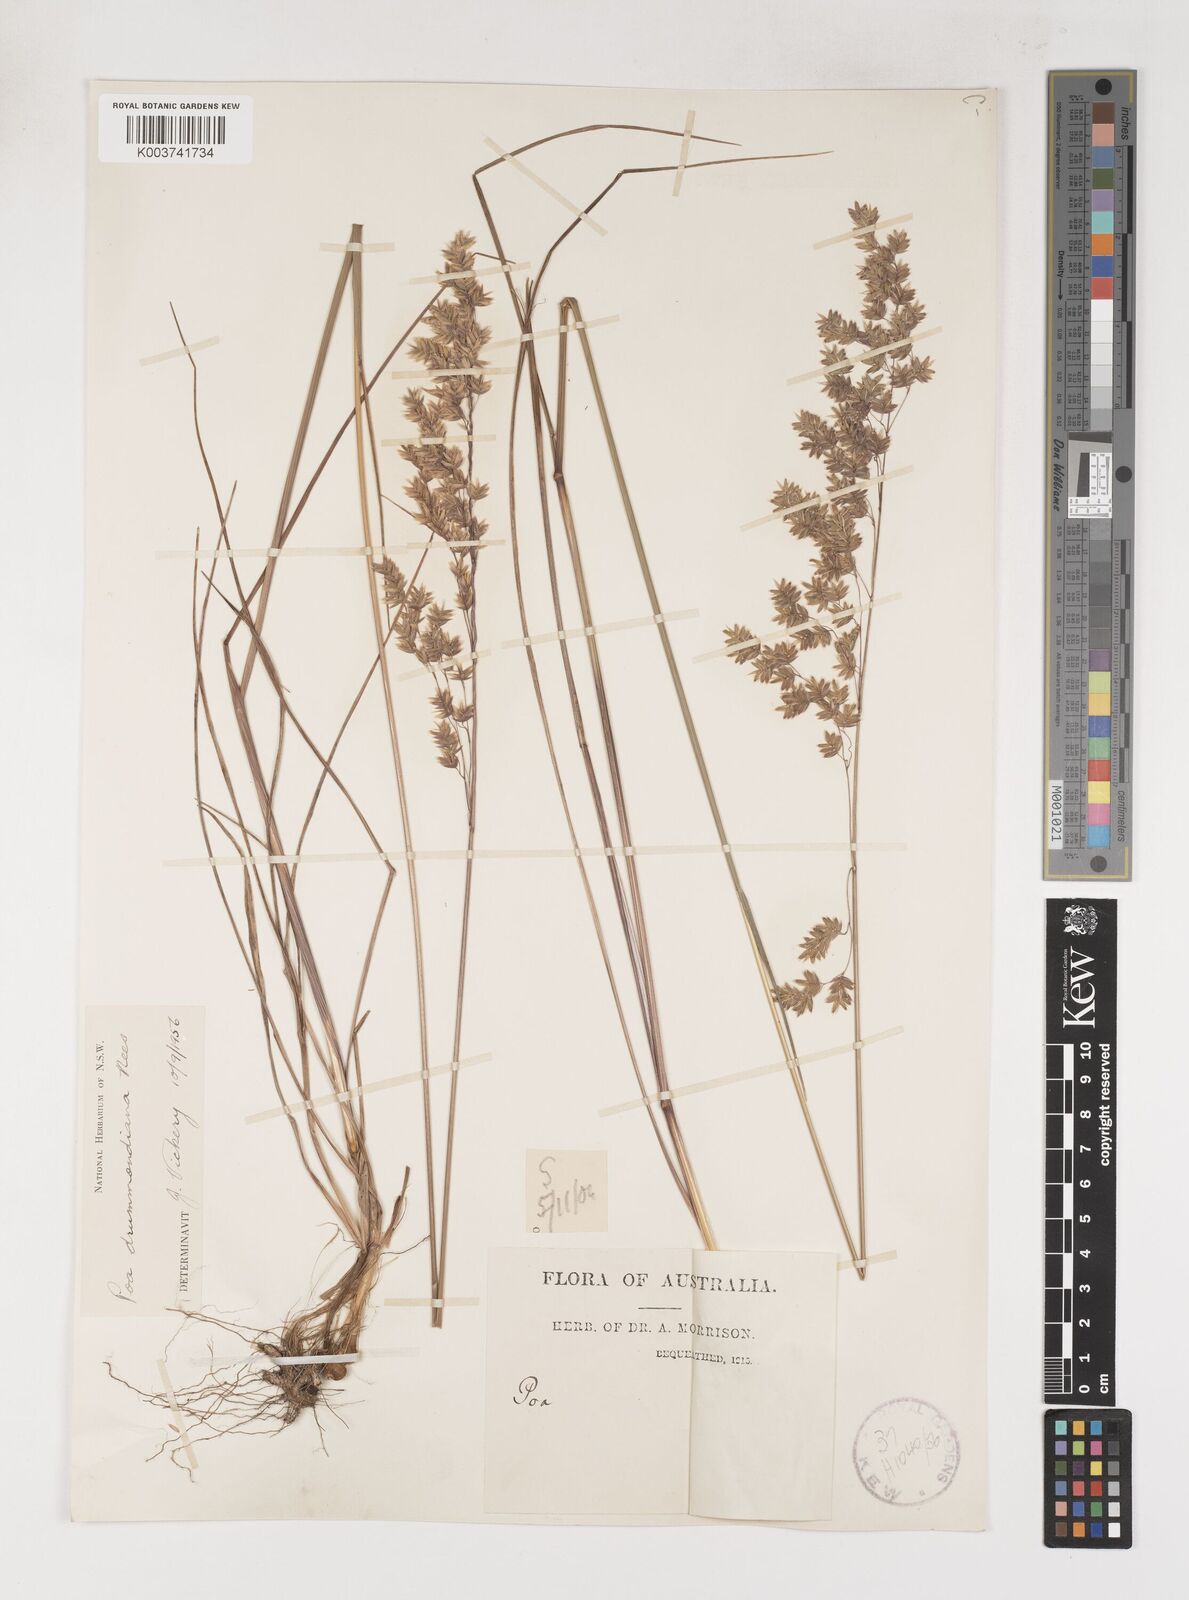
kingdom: Plantae
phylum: Tracheophyta
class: Liliopsida
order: Poales
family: Poaceae
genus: Poa
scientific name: Poa drummondiana
